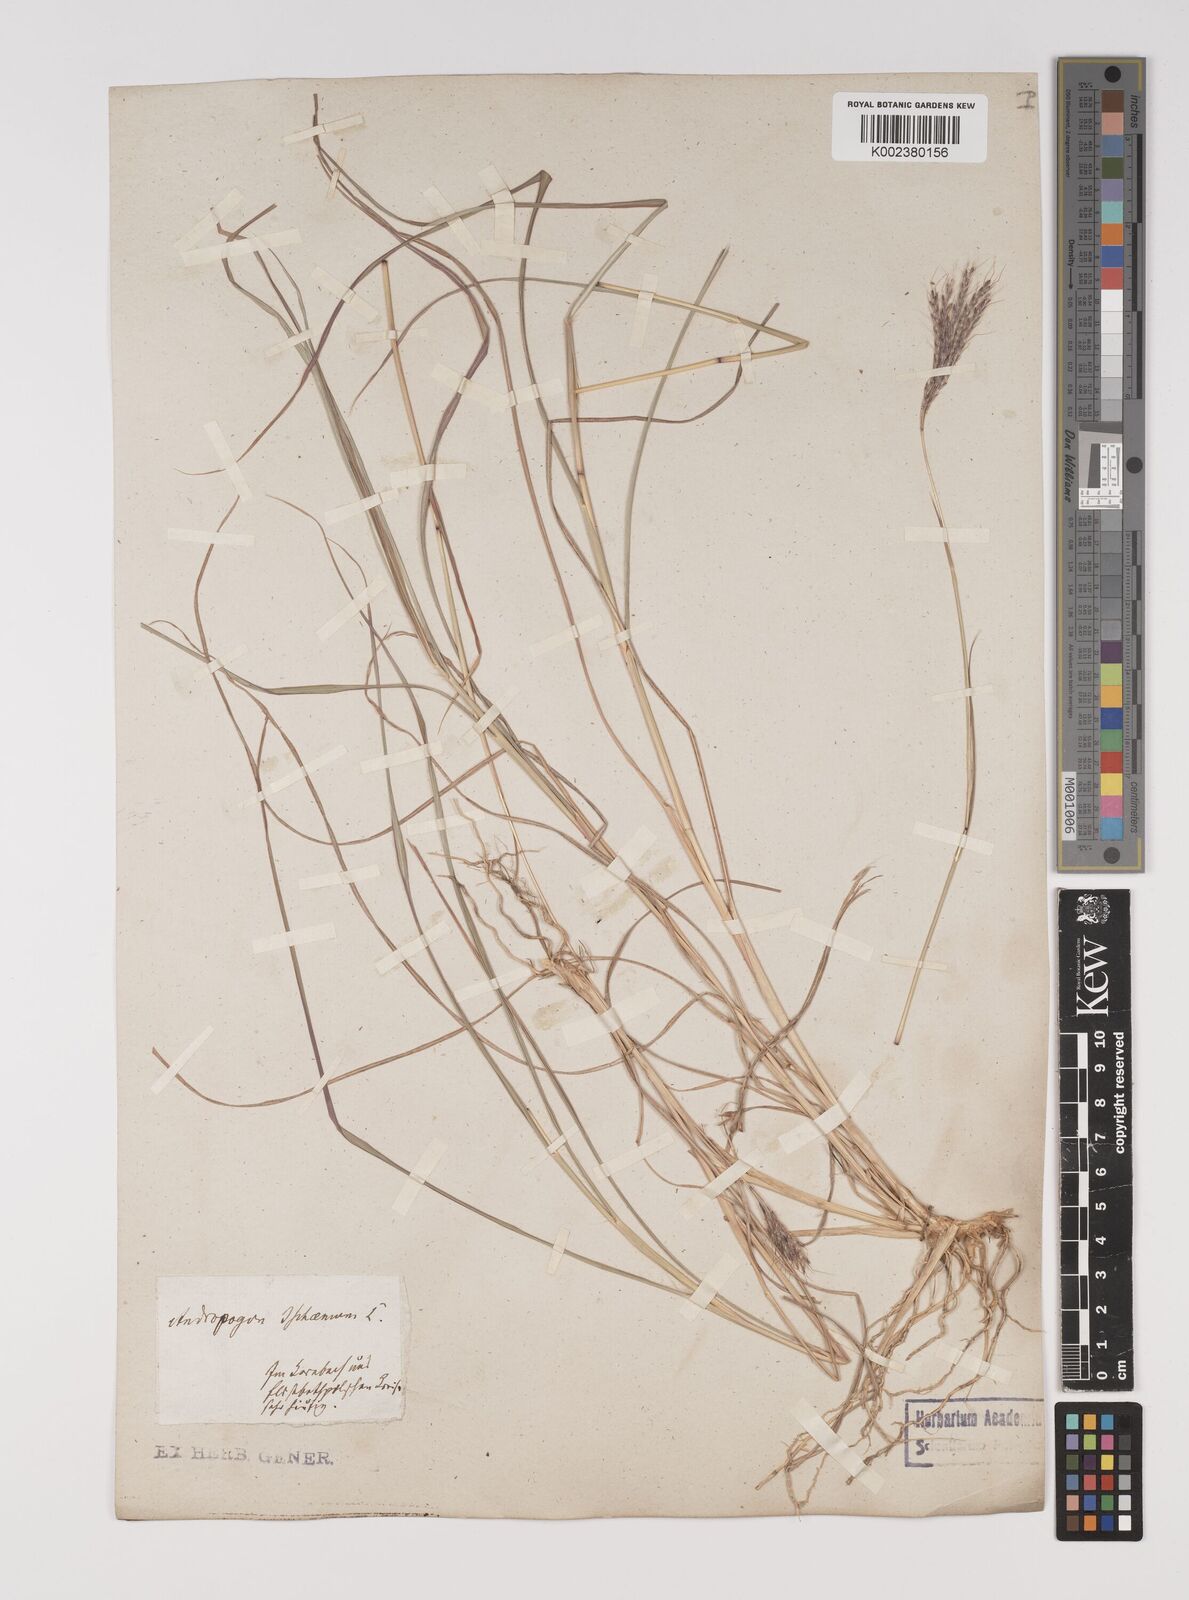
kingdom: Plantae
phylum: Tracheophyta
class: Liliopsida
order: Poales
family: Poaceae
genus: Bothriochloa
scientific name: Bothriochloa ischaemum
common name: Yellow bluestem
